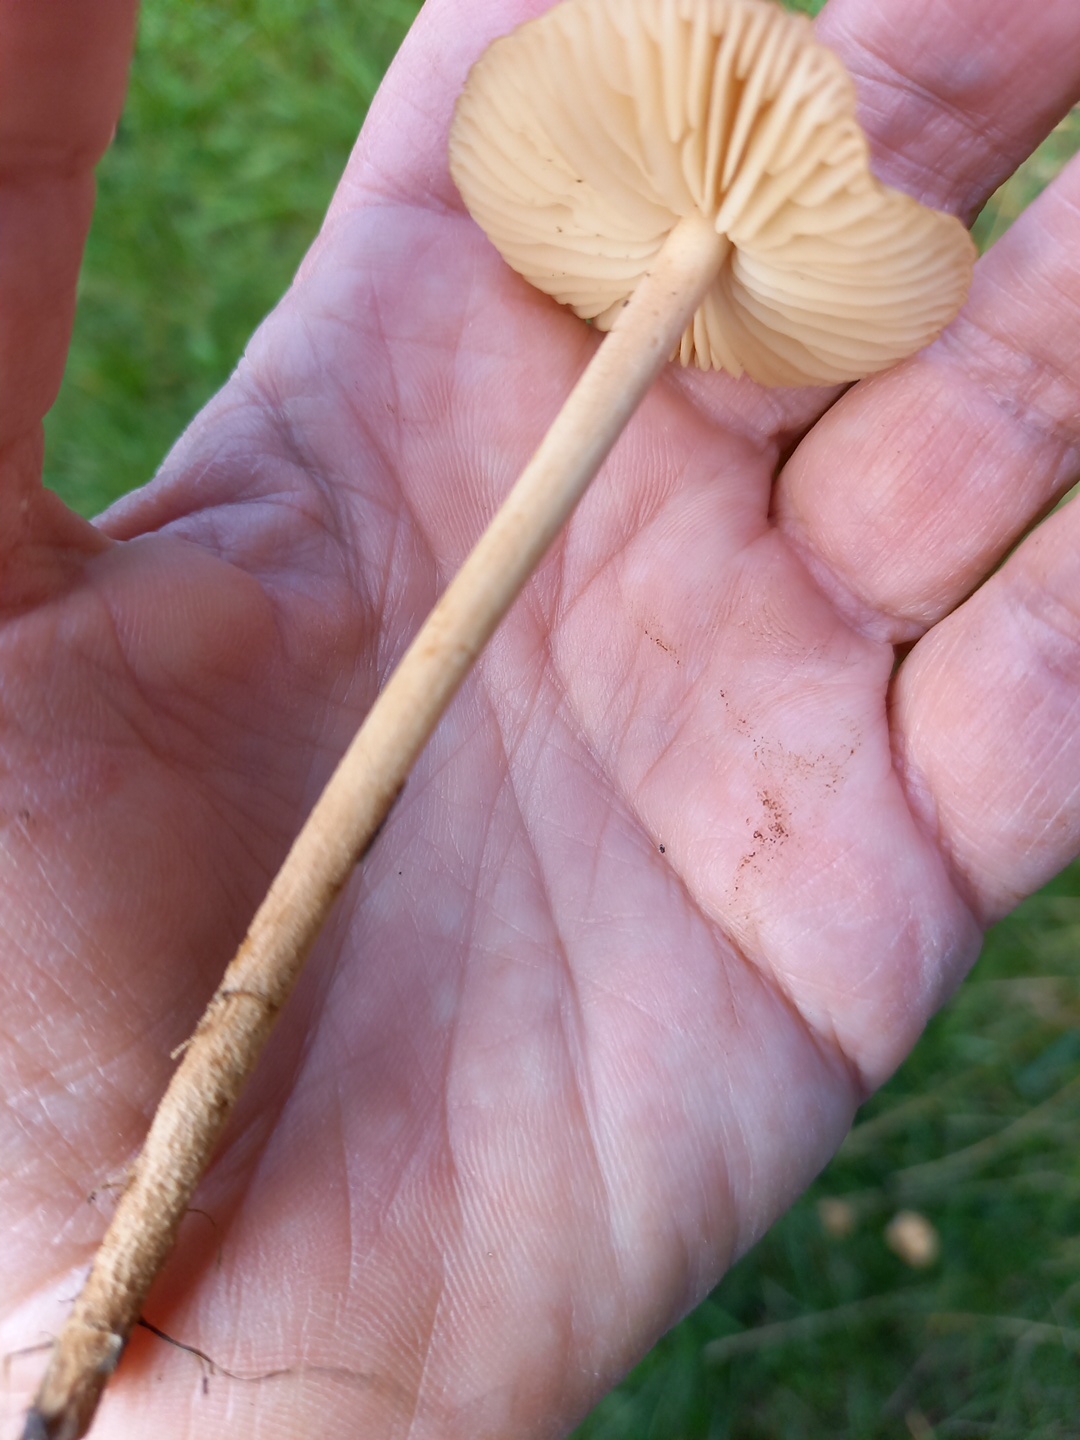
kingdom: Fungi
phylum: Basidiomycota
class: Agaricomycetes
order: Agaricales
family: Marasmiaceae
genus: Marasmius
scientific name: Marasmius oreades
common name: elledans-bruskhat
